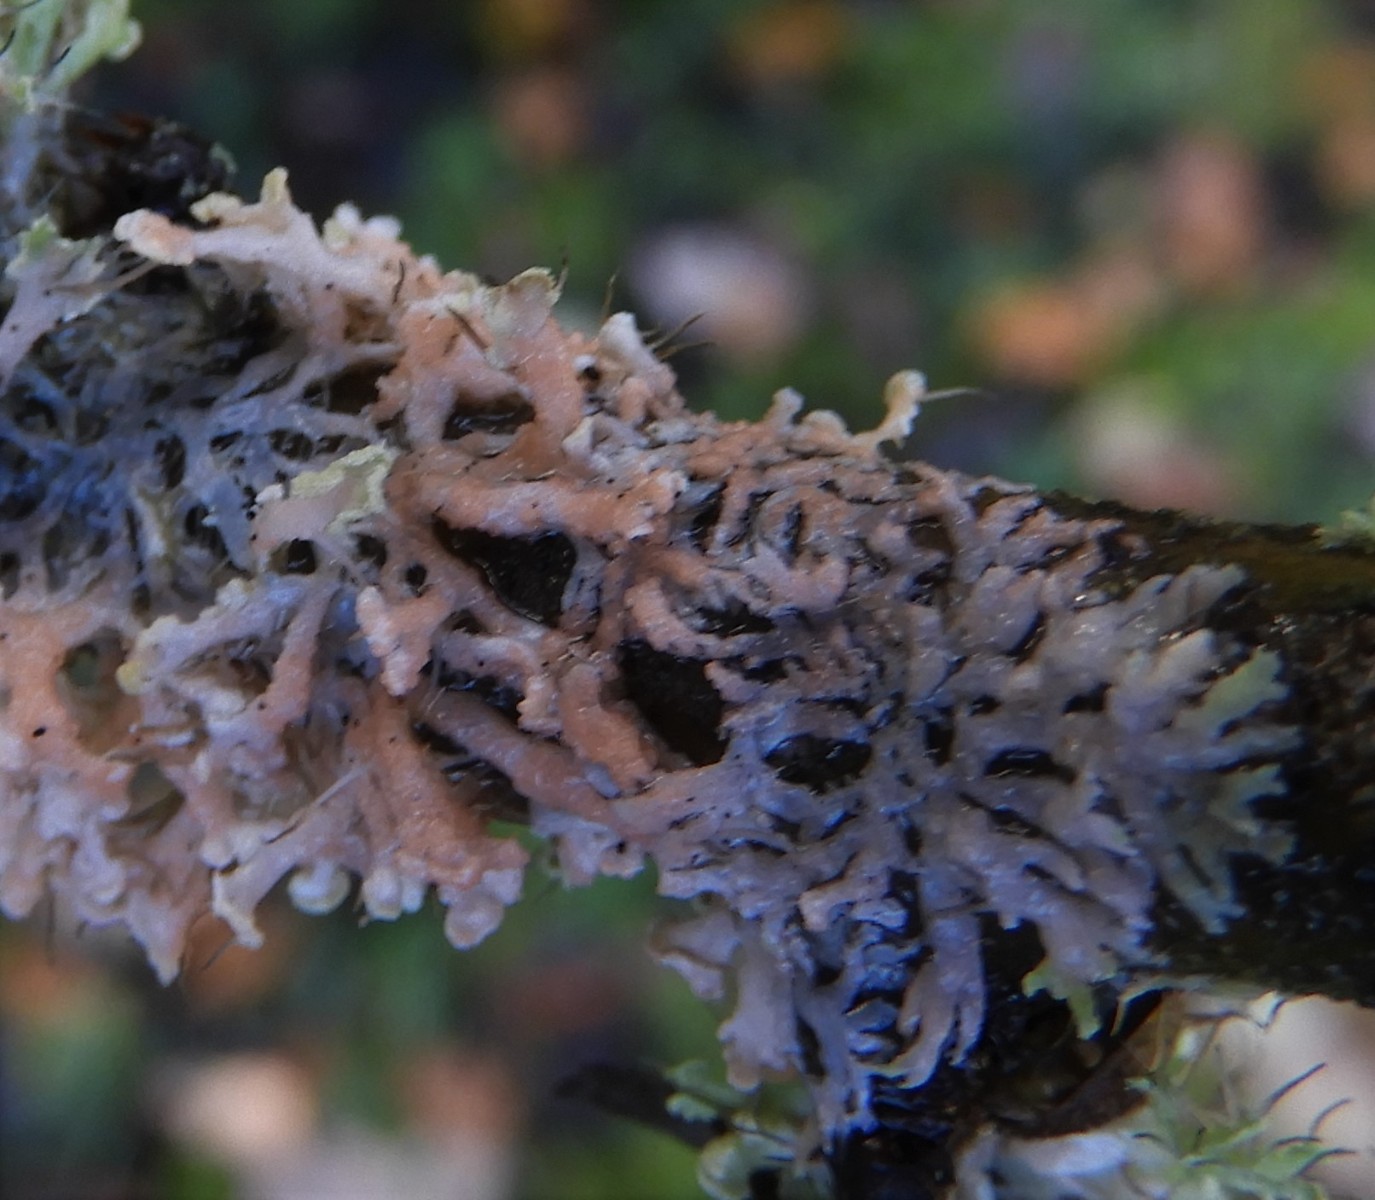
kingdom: Fungi
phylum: Basidiomycota
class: Agaricomycetes
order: Corticiales
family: Corticiaceae
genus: Erythricium
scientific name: Erythricium aurantiacum
